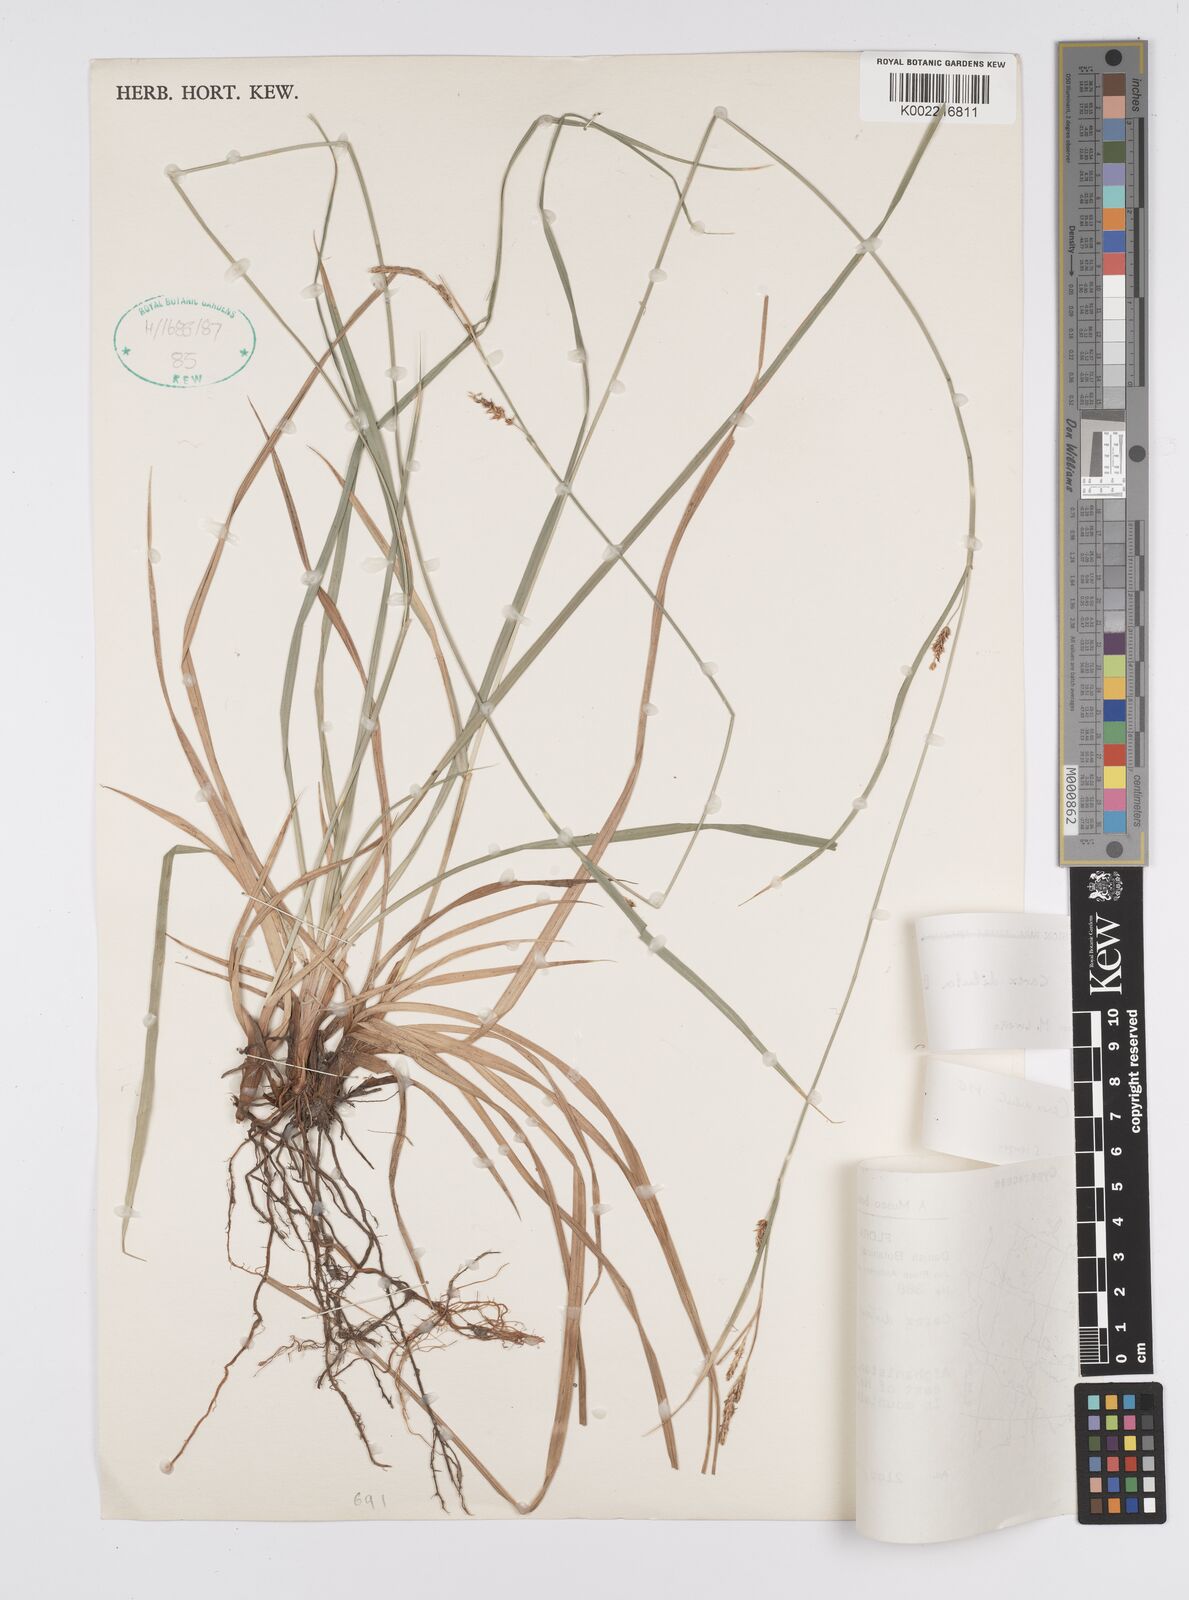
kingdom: Plantae
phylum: Tracheophyta
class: Liliopsida
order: Poales
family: Cyperaceae
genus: Carex
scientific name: Carex diluta
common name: Sedge
